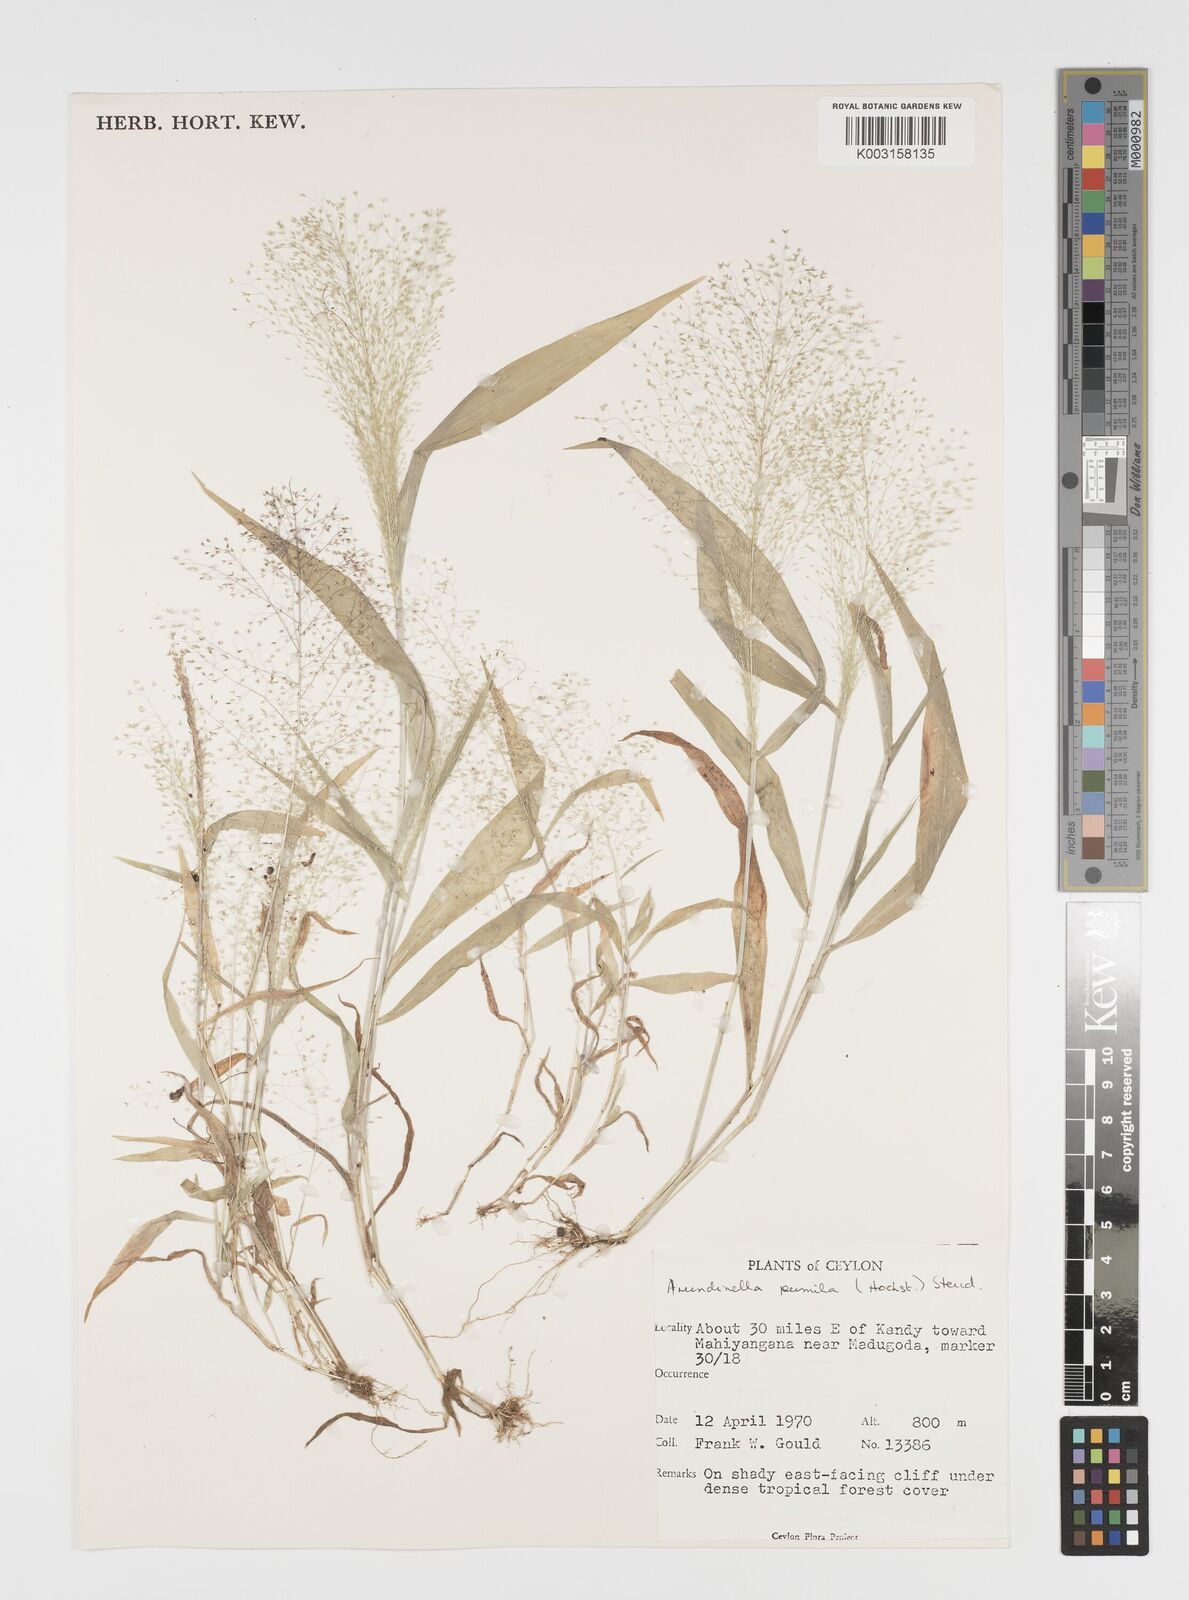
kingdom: Plantae
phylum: Tracheophyta
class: Liliopsida
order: Poales
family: Poaceae
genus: Arundinella
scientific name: Arundinella pumila
